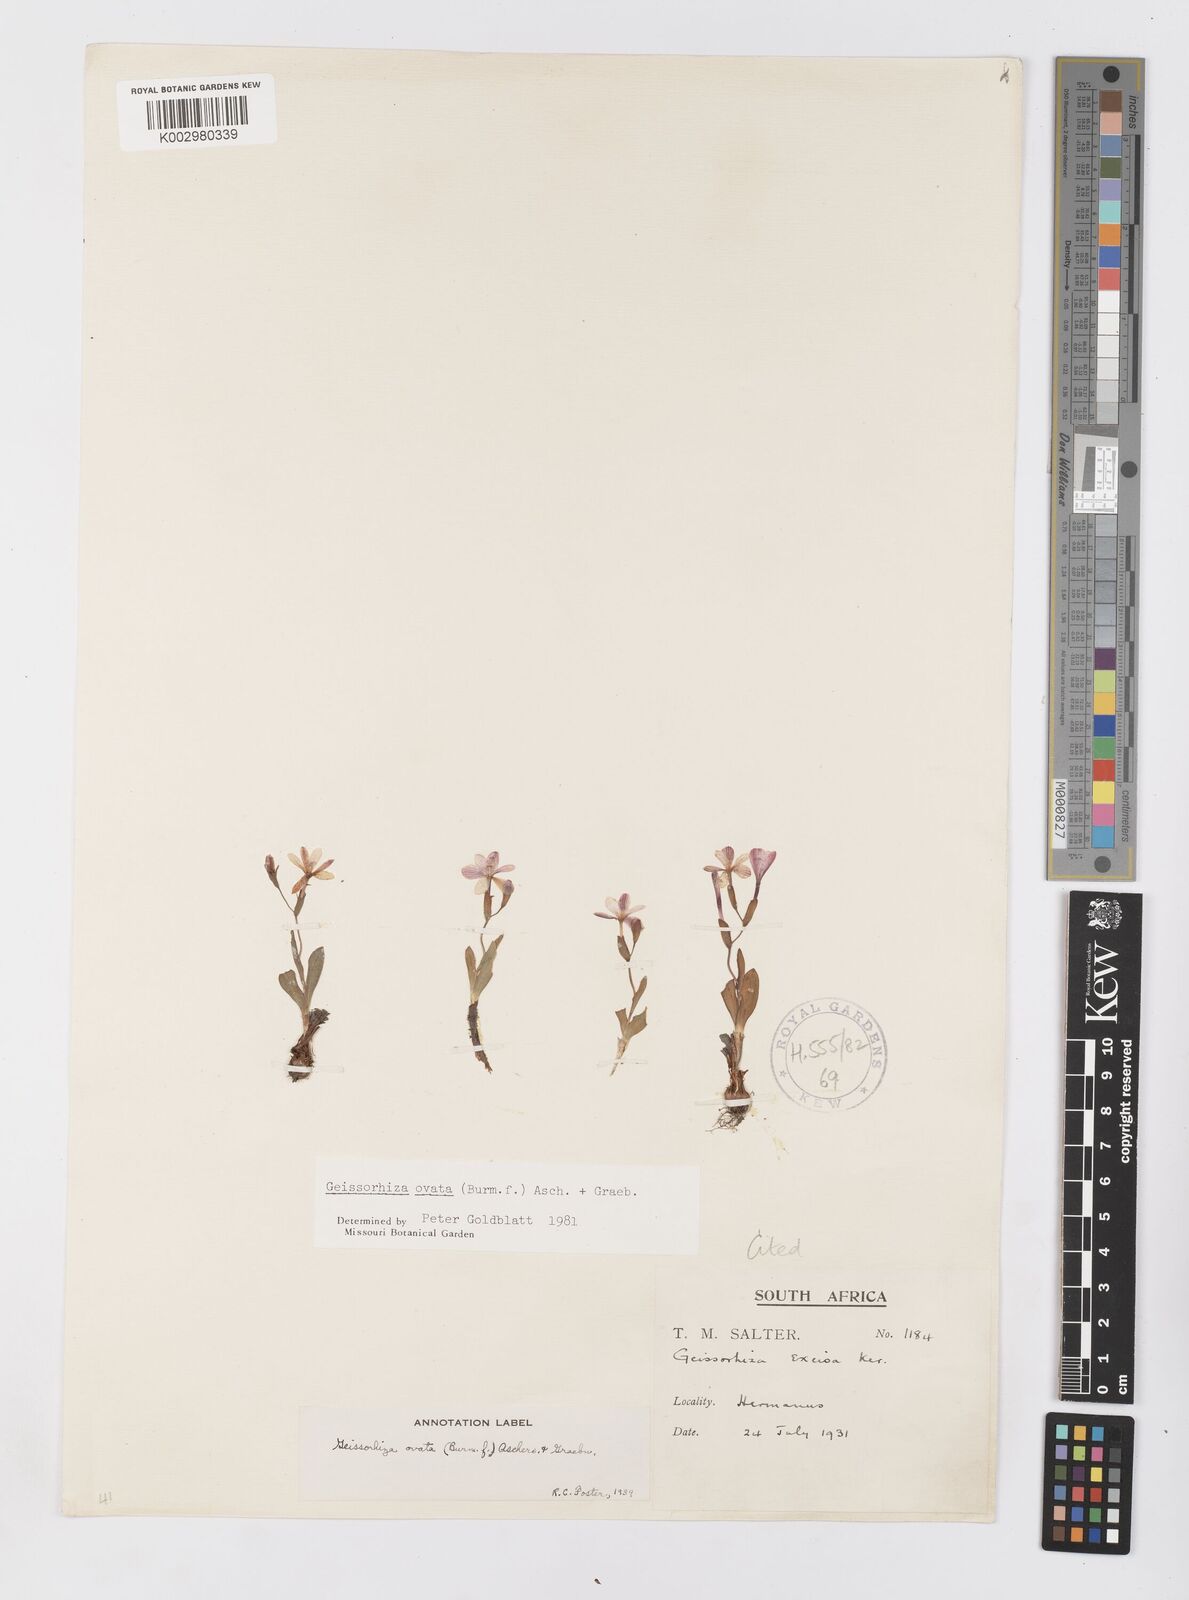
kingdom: Plantae
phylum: Tracheophyta
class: Liliopsida
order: Asparagales
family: Iridaceae
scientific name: Iridaceae
